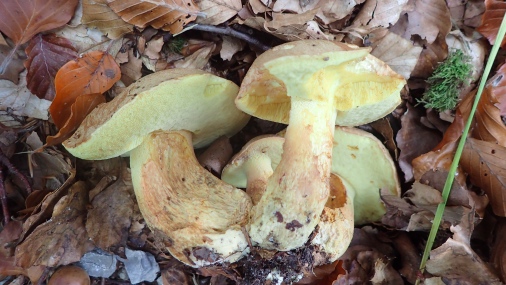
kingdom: Fungi
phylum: Basidiomycota
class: Agaricomycetes
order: Boletales
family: Boletaceae
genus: Butyriboletus
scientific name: Butyriboletus appendiculatus
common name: tenstokket rørhat
